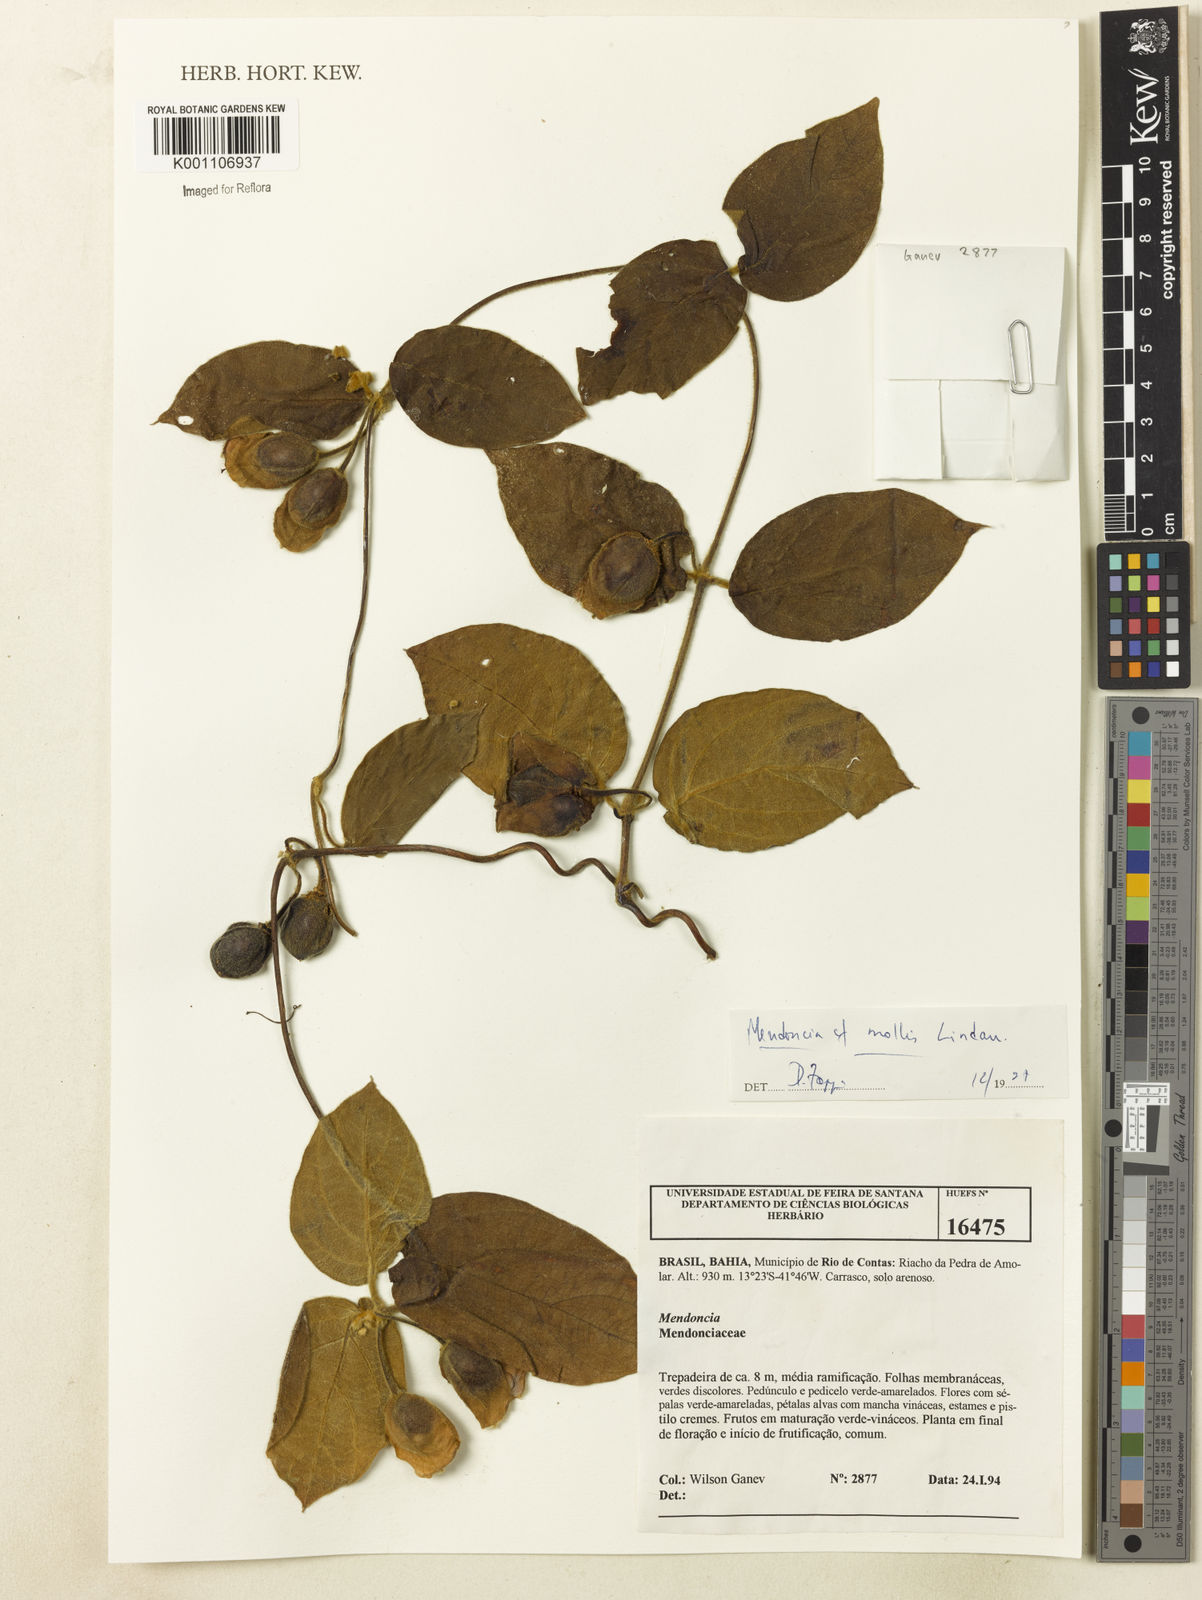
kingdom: Plantae
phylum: Tracheophyta
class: Magnoliopsida
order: Lamiales
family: Acanthaceae
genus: Mendoncia
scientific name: Mendoncia mollis
